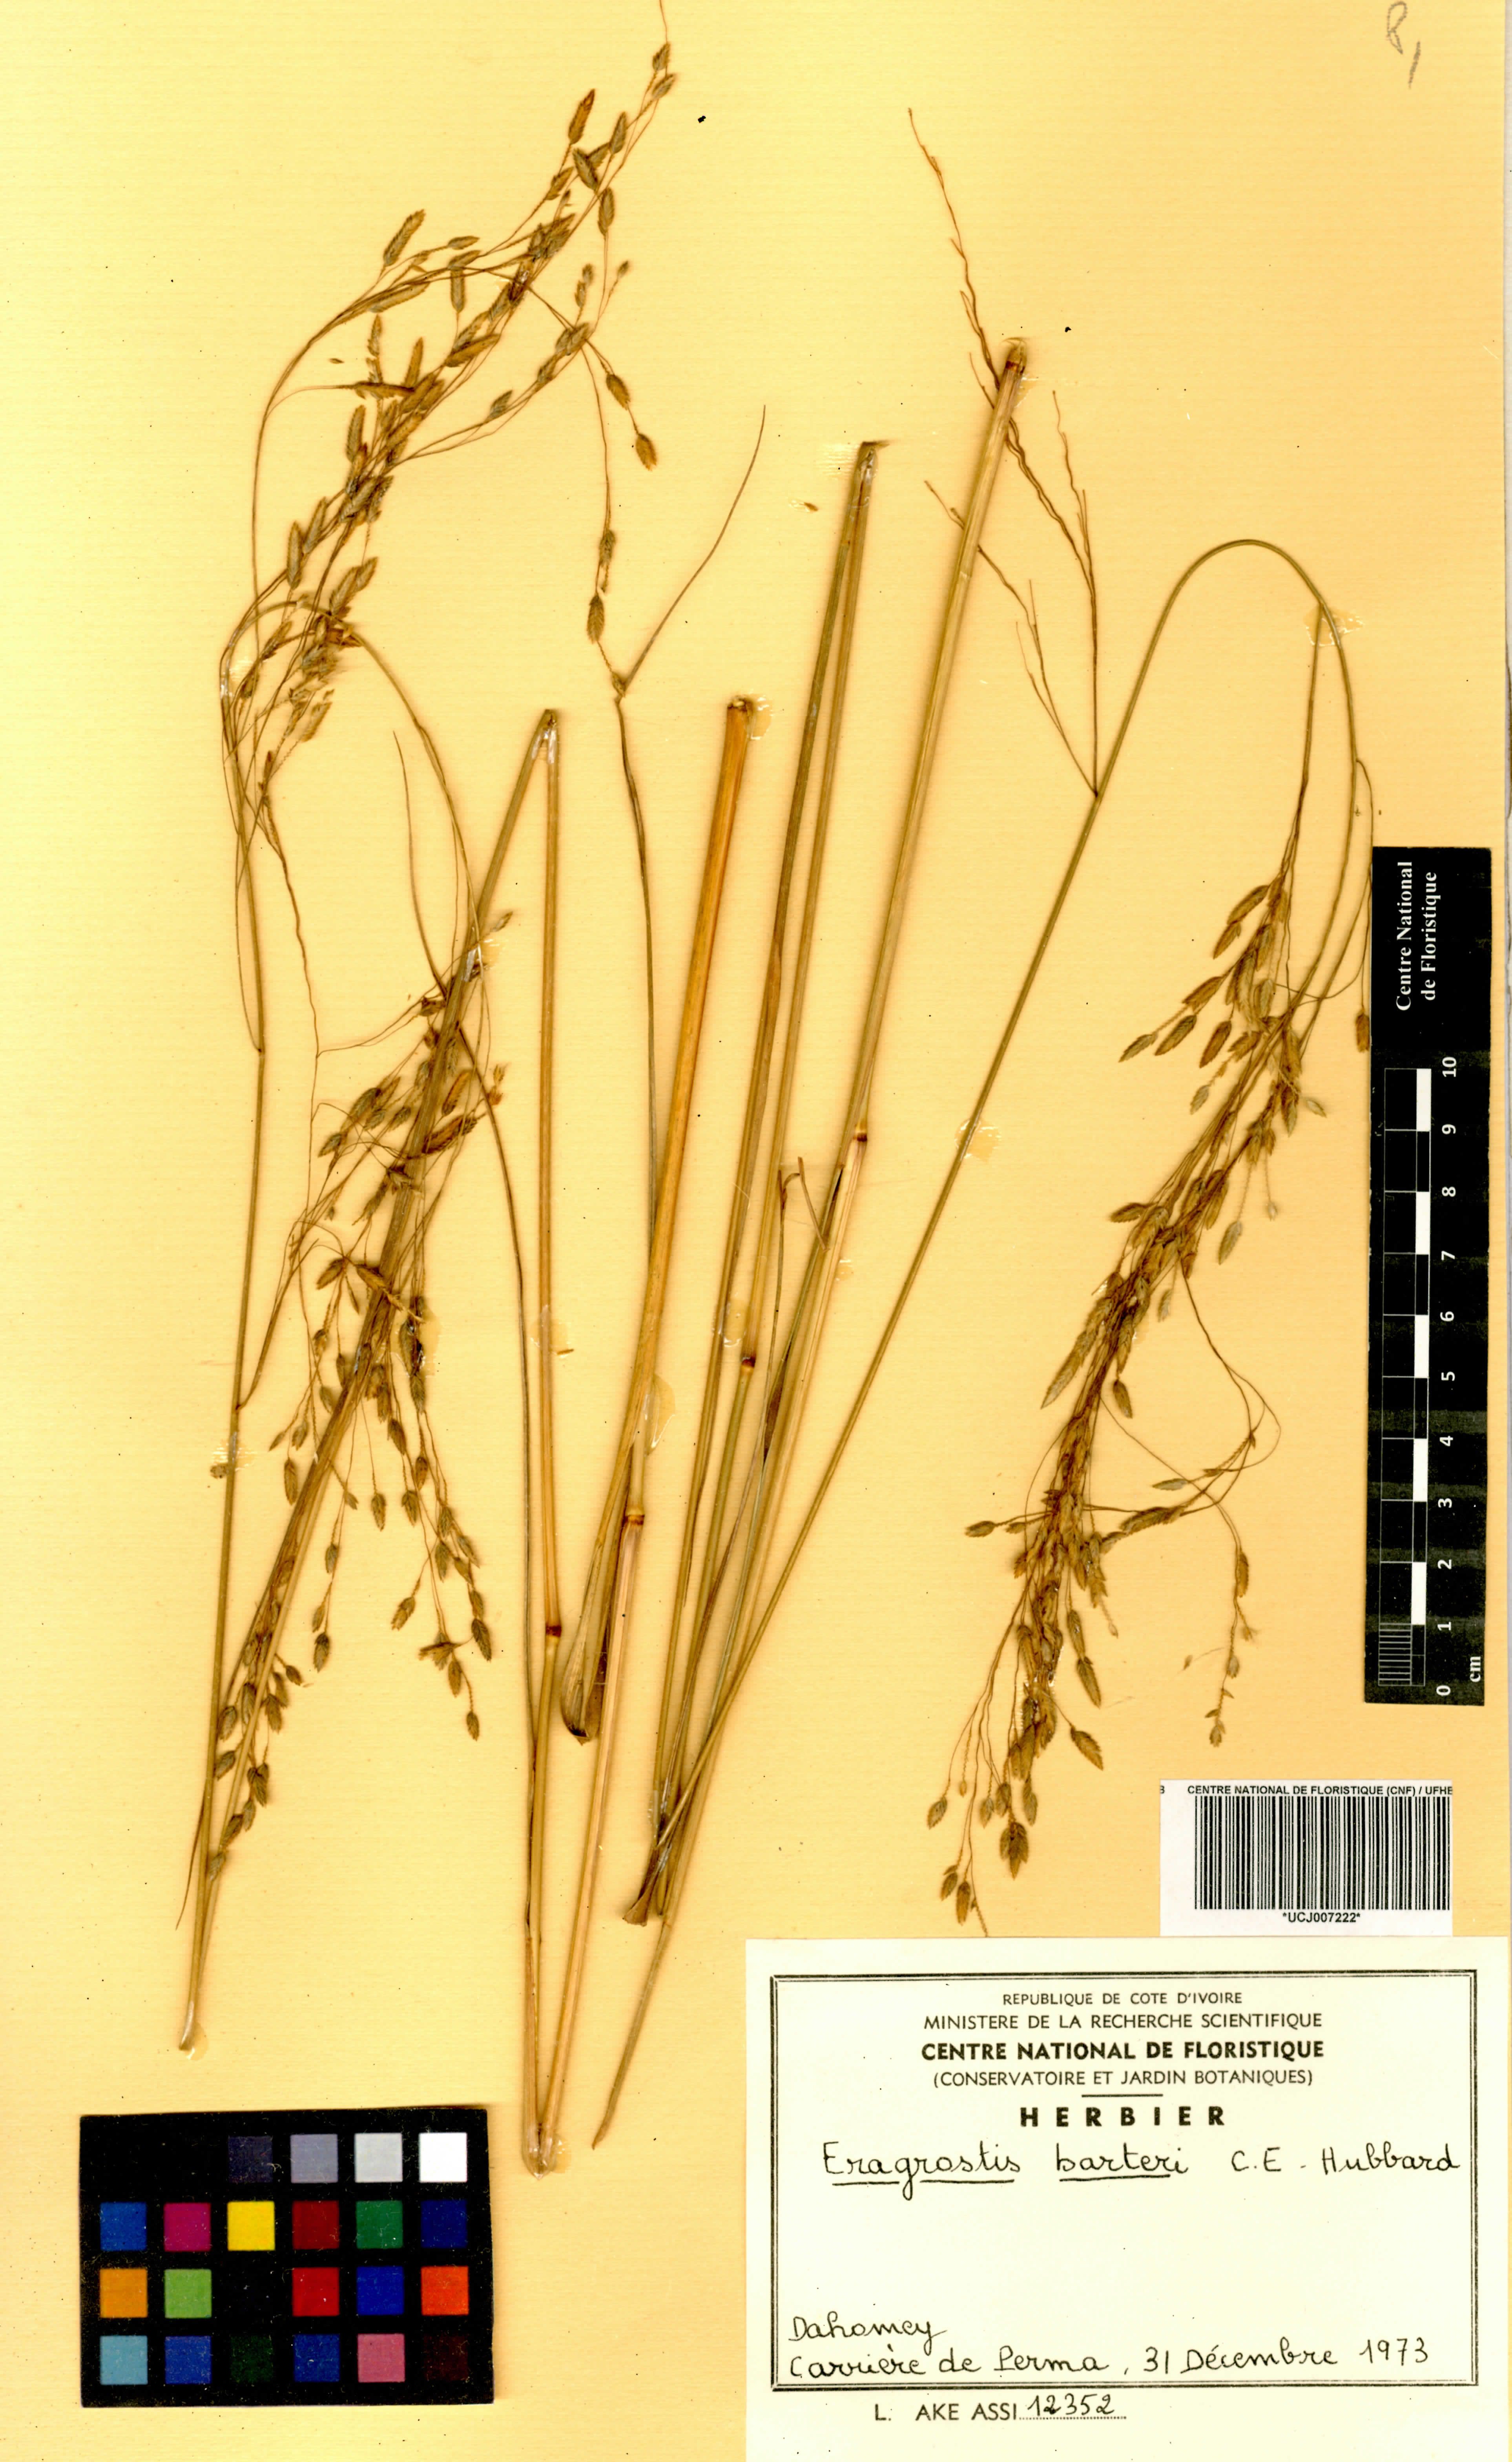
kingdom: Plantae
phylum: Tracheophyta
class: Liliopsida
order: Poales
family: Poaceae
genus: Eragrostis
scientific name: Eragrostis barteri
